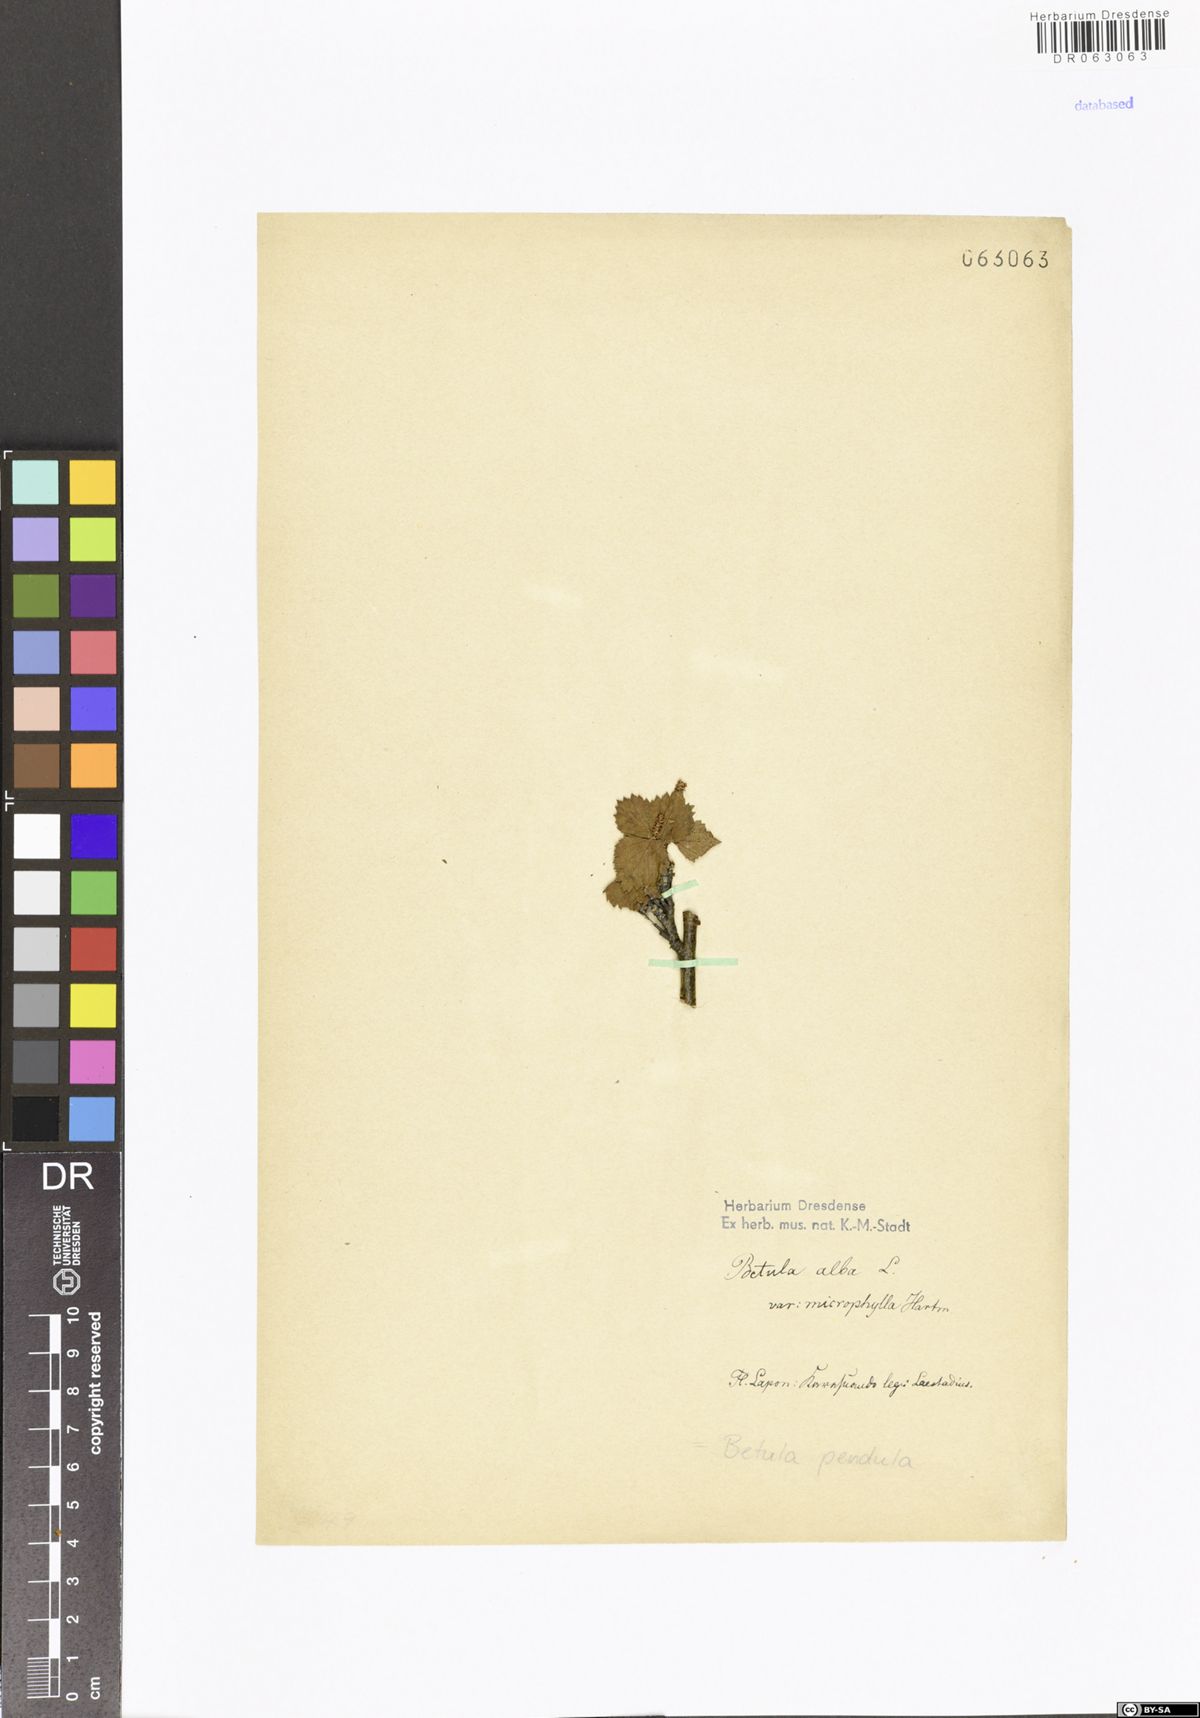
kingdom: Plantae
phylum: Tracheophyta
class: Magnoliopsida
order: Fagales
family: Betulaceae
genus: Betula
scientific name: Betula pendula
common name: Silver birch
